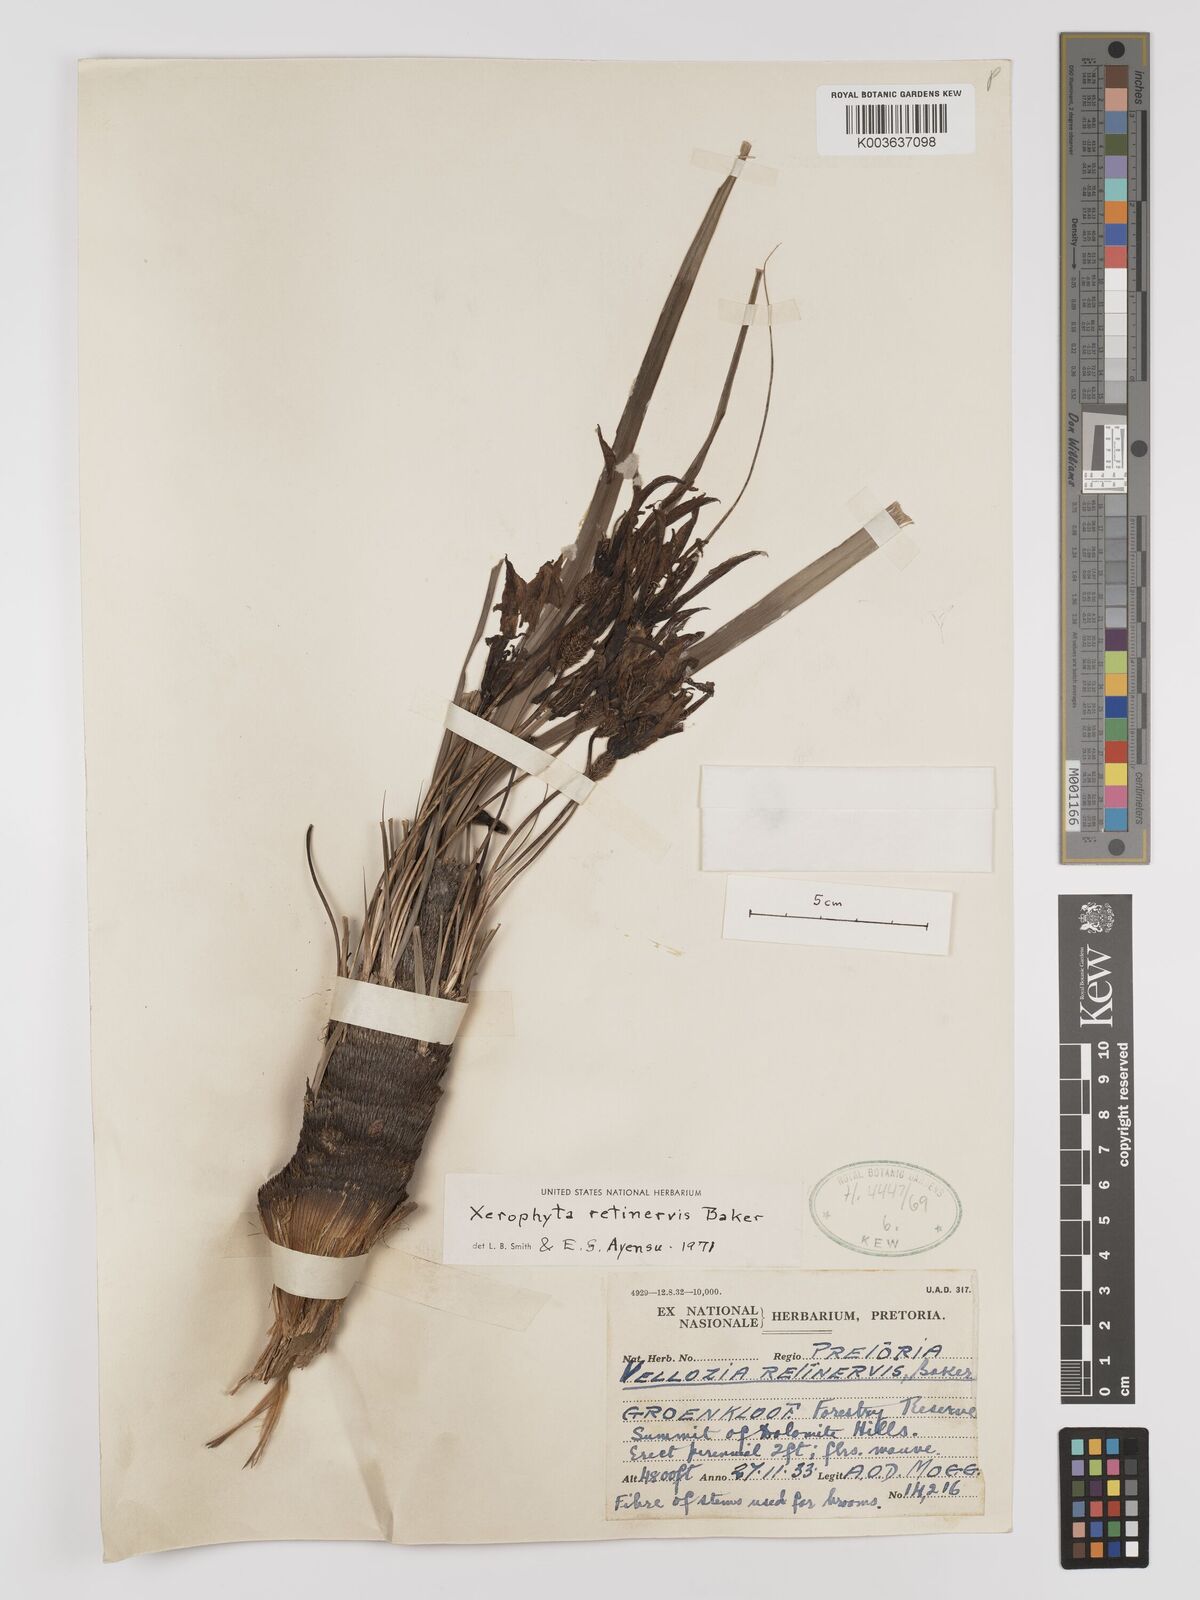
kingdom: Plantae
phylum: Tracheophyta
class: Liliopsida
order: Pandanales
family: Velloziaceae
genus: Xerophyta
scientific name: Xerophyta retinervis
